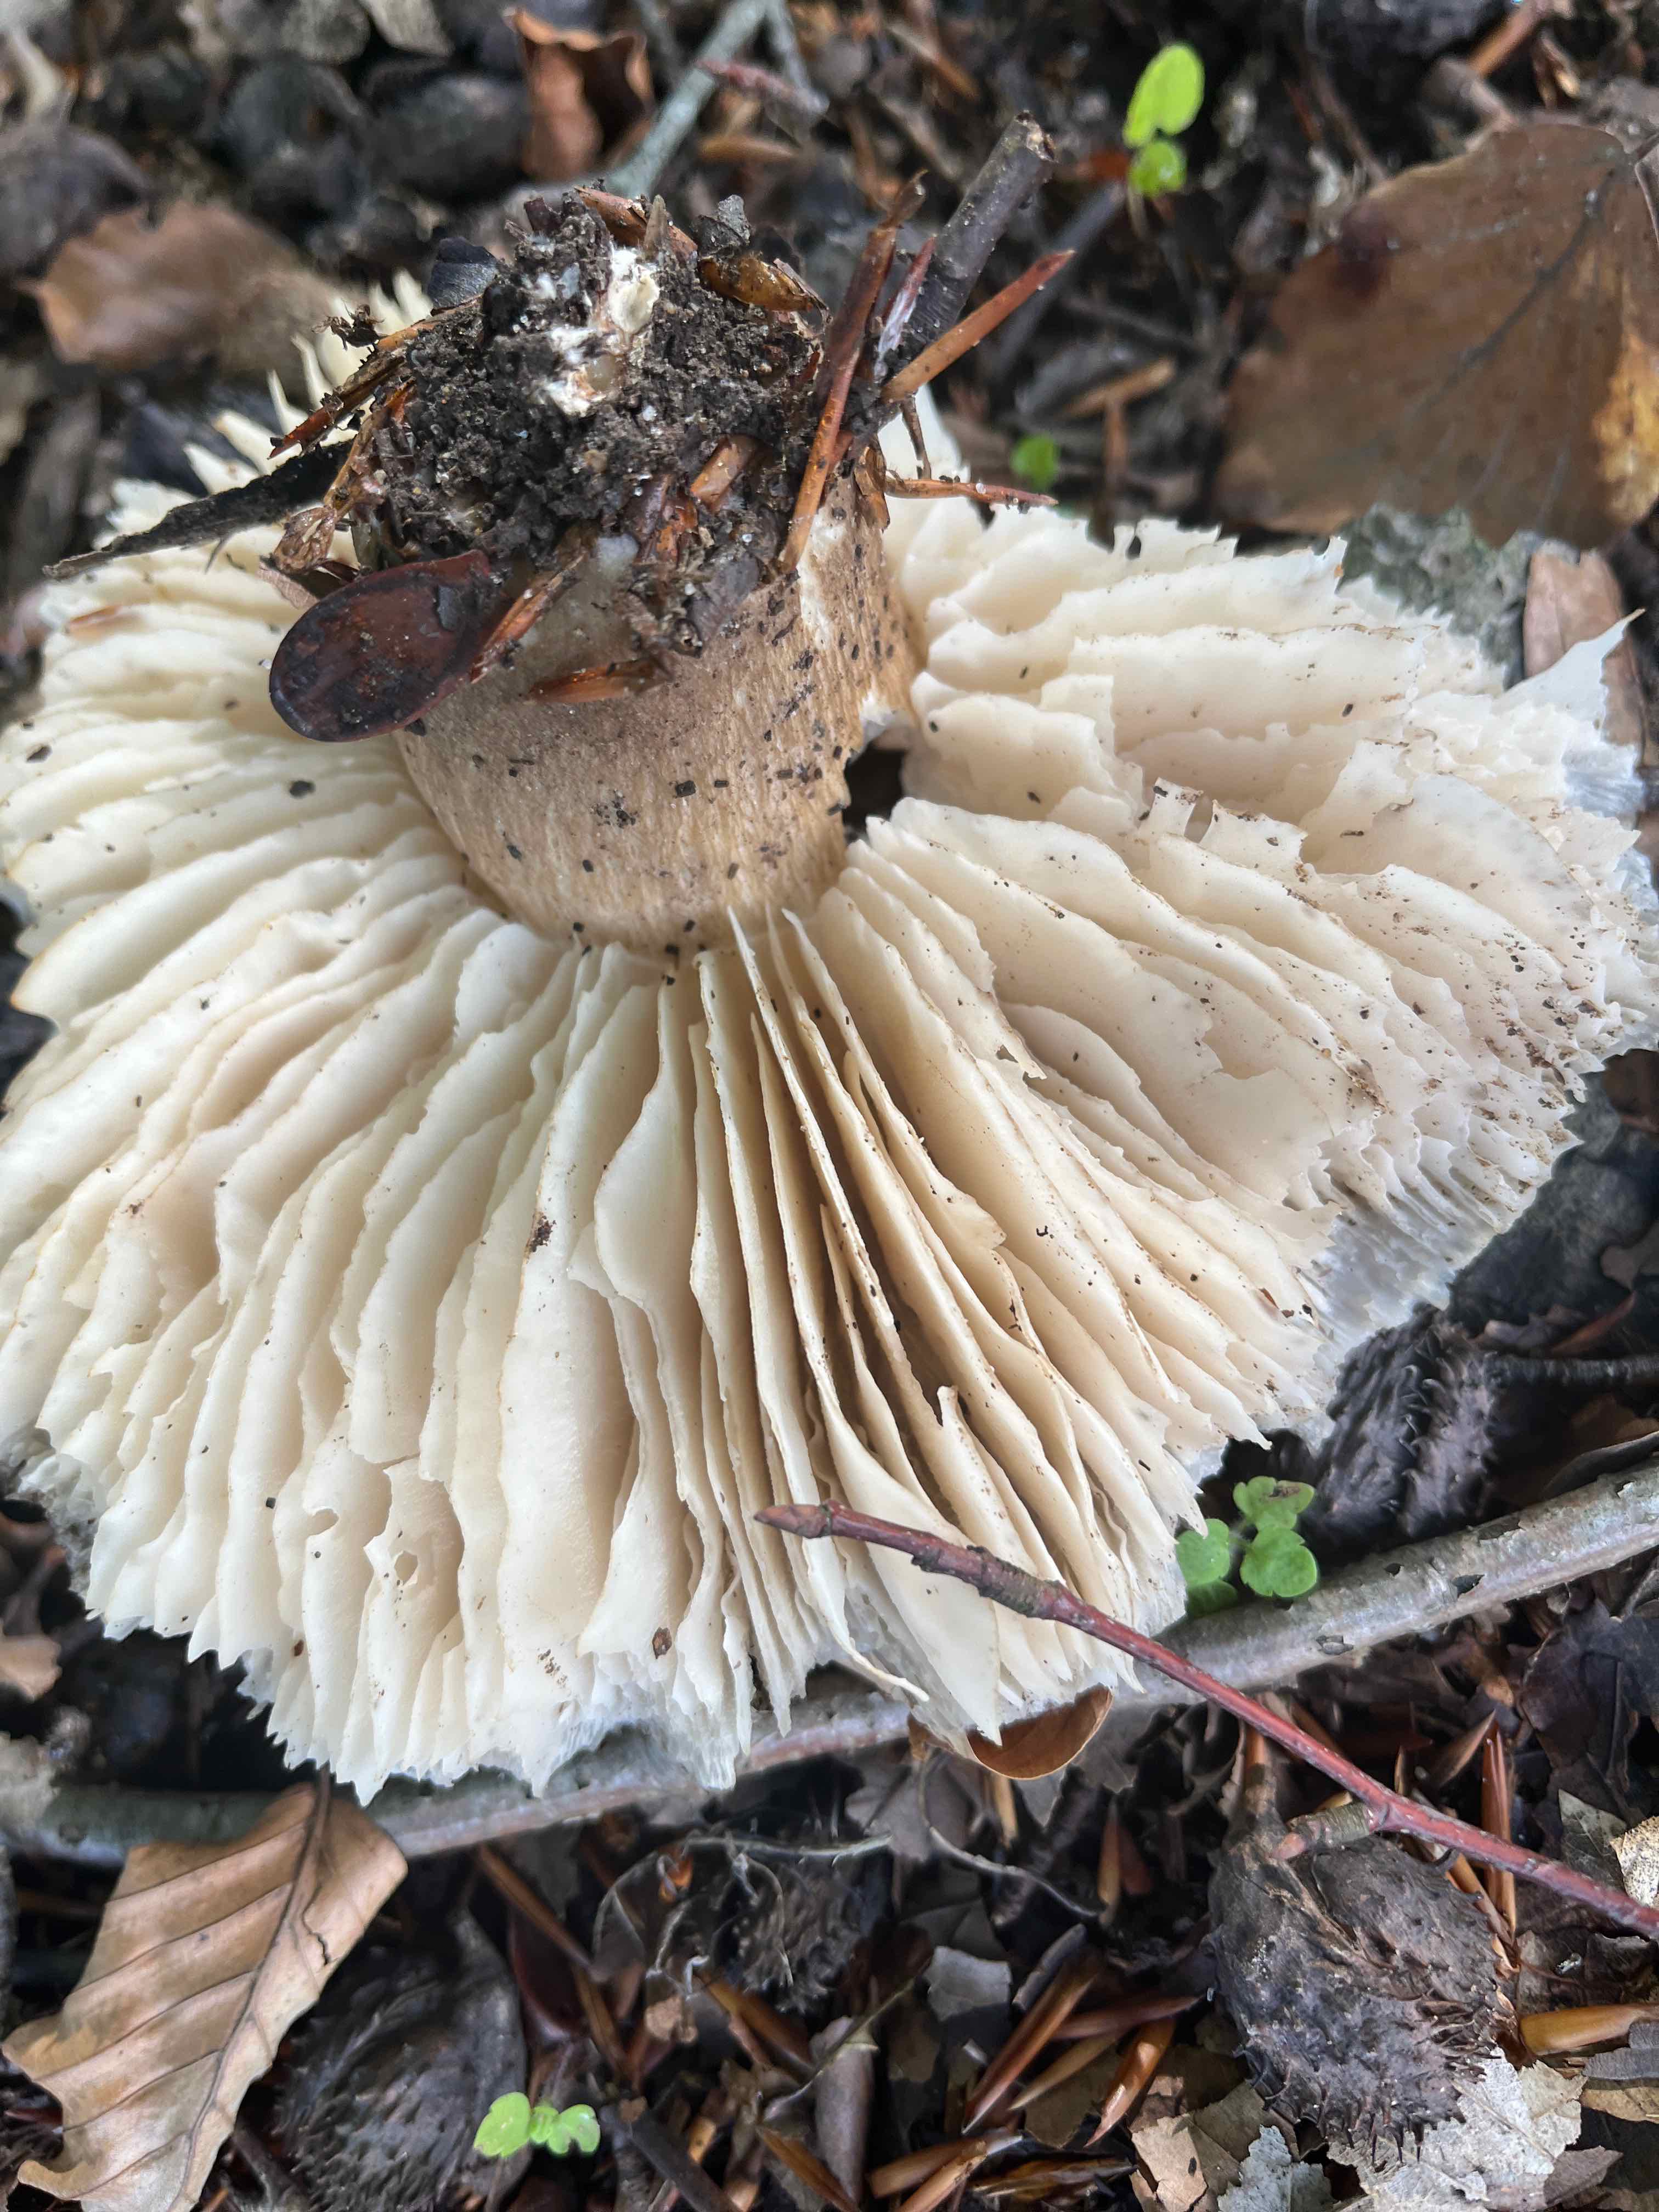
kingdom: Fungi
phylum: Basidiomycota
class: Agaricomycetes
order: Agaricales
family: Tricholomataceae
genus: Megacollybia
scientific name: Megacollybia platyphylla
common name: bredbladet væbnerhat
